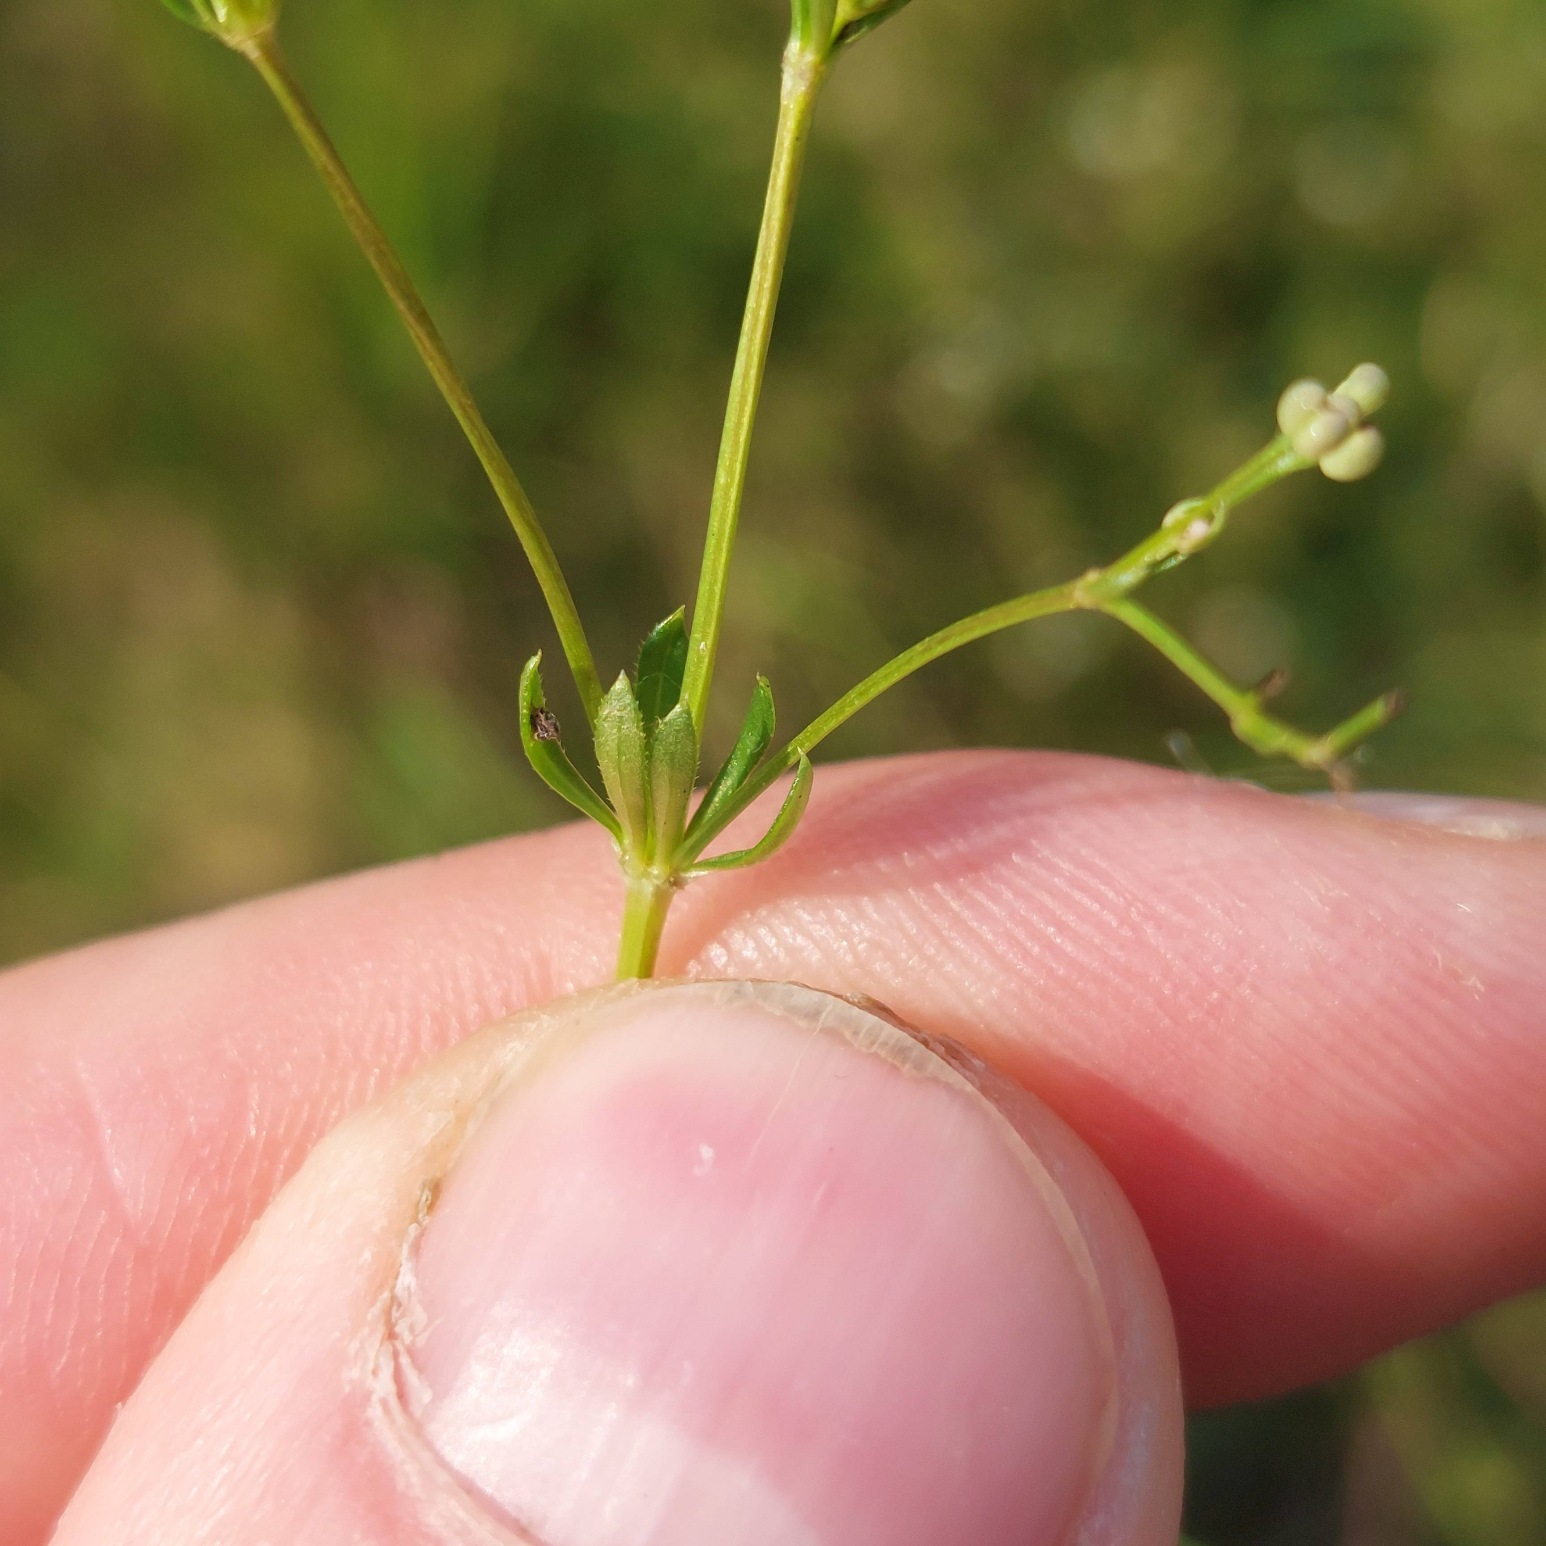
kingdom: Plantae
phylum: Tracheophyta
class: Magnoliopsida
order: Gentianales
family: Rubiaceae
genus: Galium
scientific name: Galium uliginosum
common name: Sump-snerre
